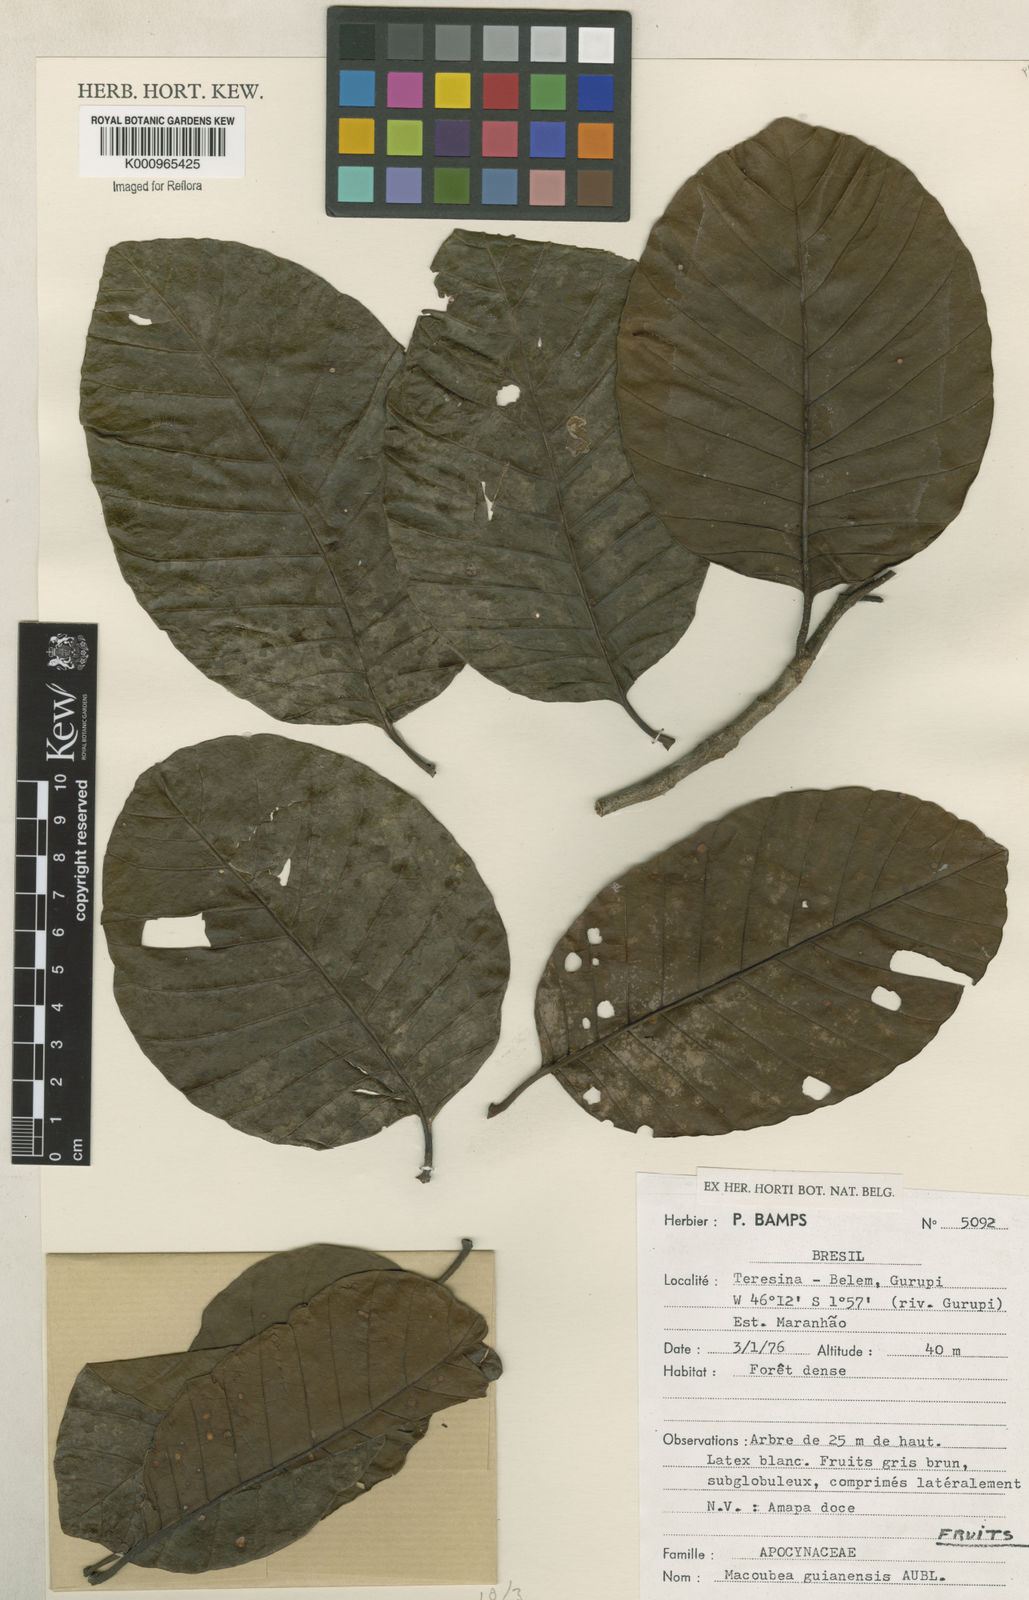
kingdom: Plantae
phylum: Tracheophyta
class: Magnoliopsida
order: Gentianales
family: Apocynaceae
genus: Macoubea
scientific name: Macoubea guianensis
